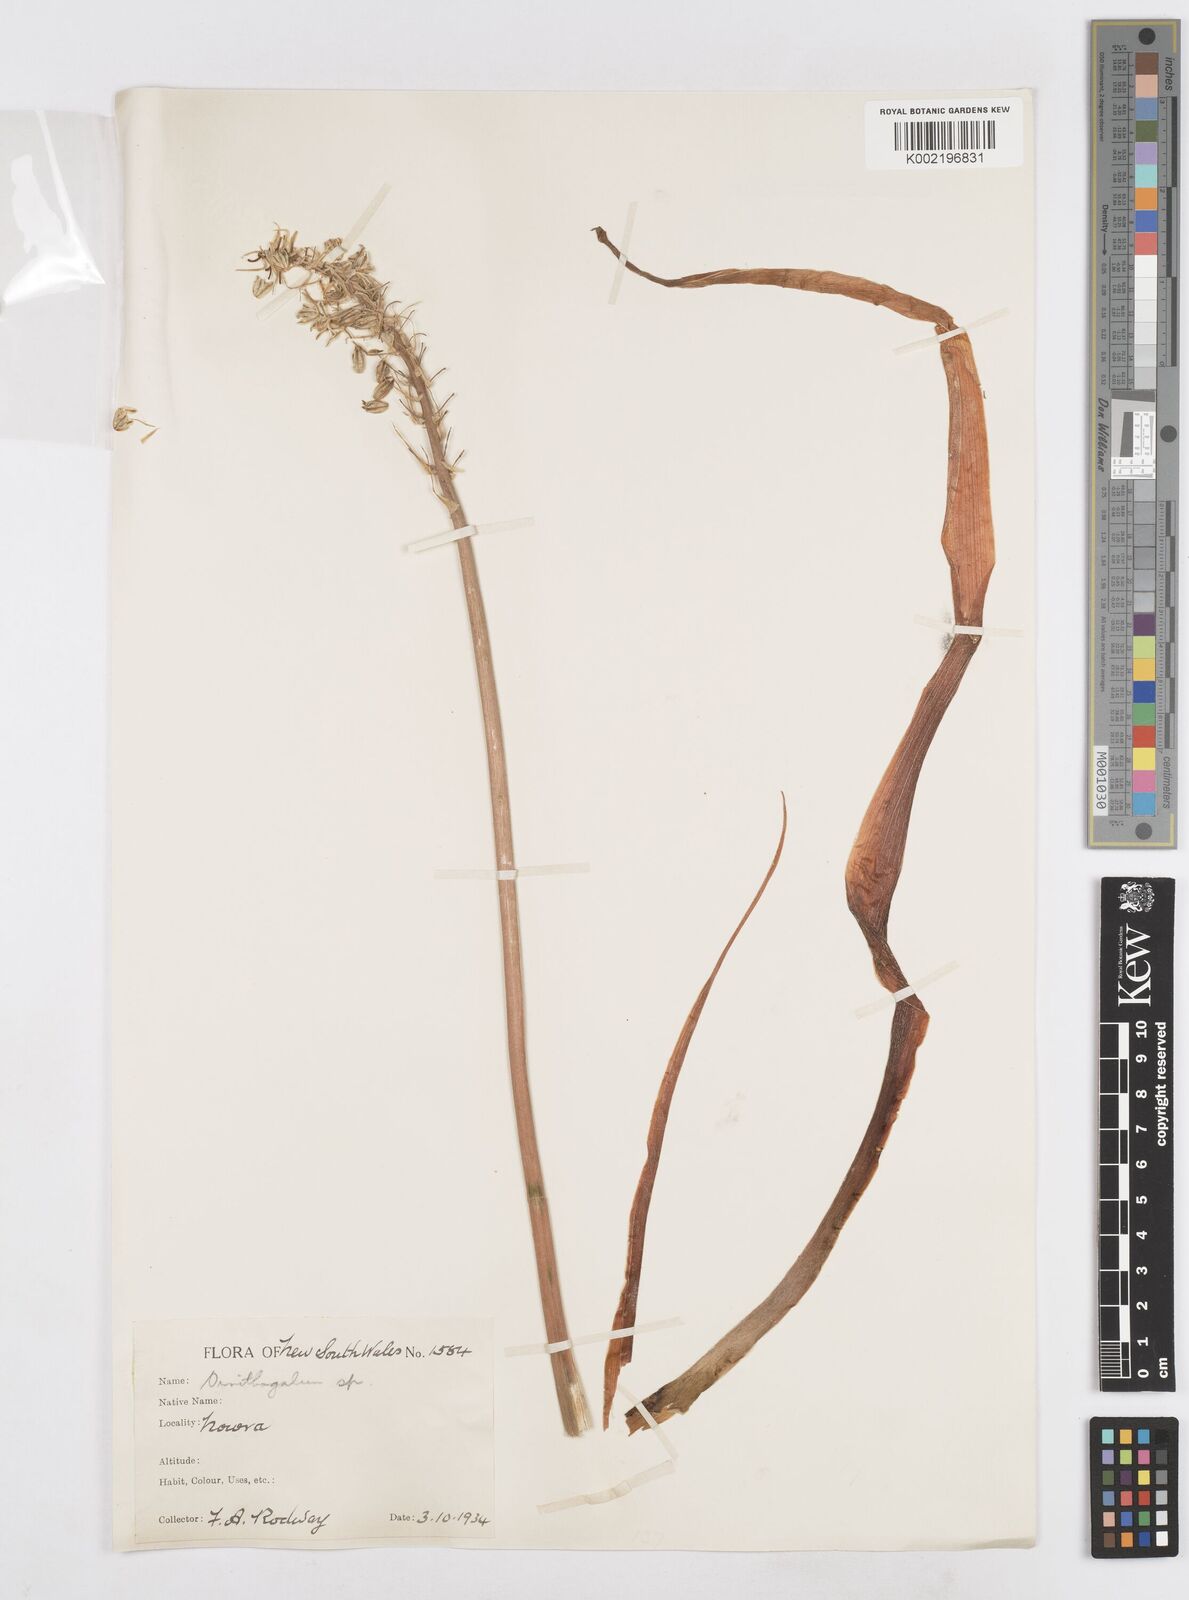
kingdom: Plantae
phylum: Tracheophyta
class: Liliopsida
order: Asparagales
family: Asparagaceae
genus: Ornithogalum
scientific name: Ornithogalum
